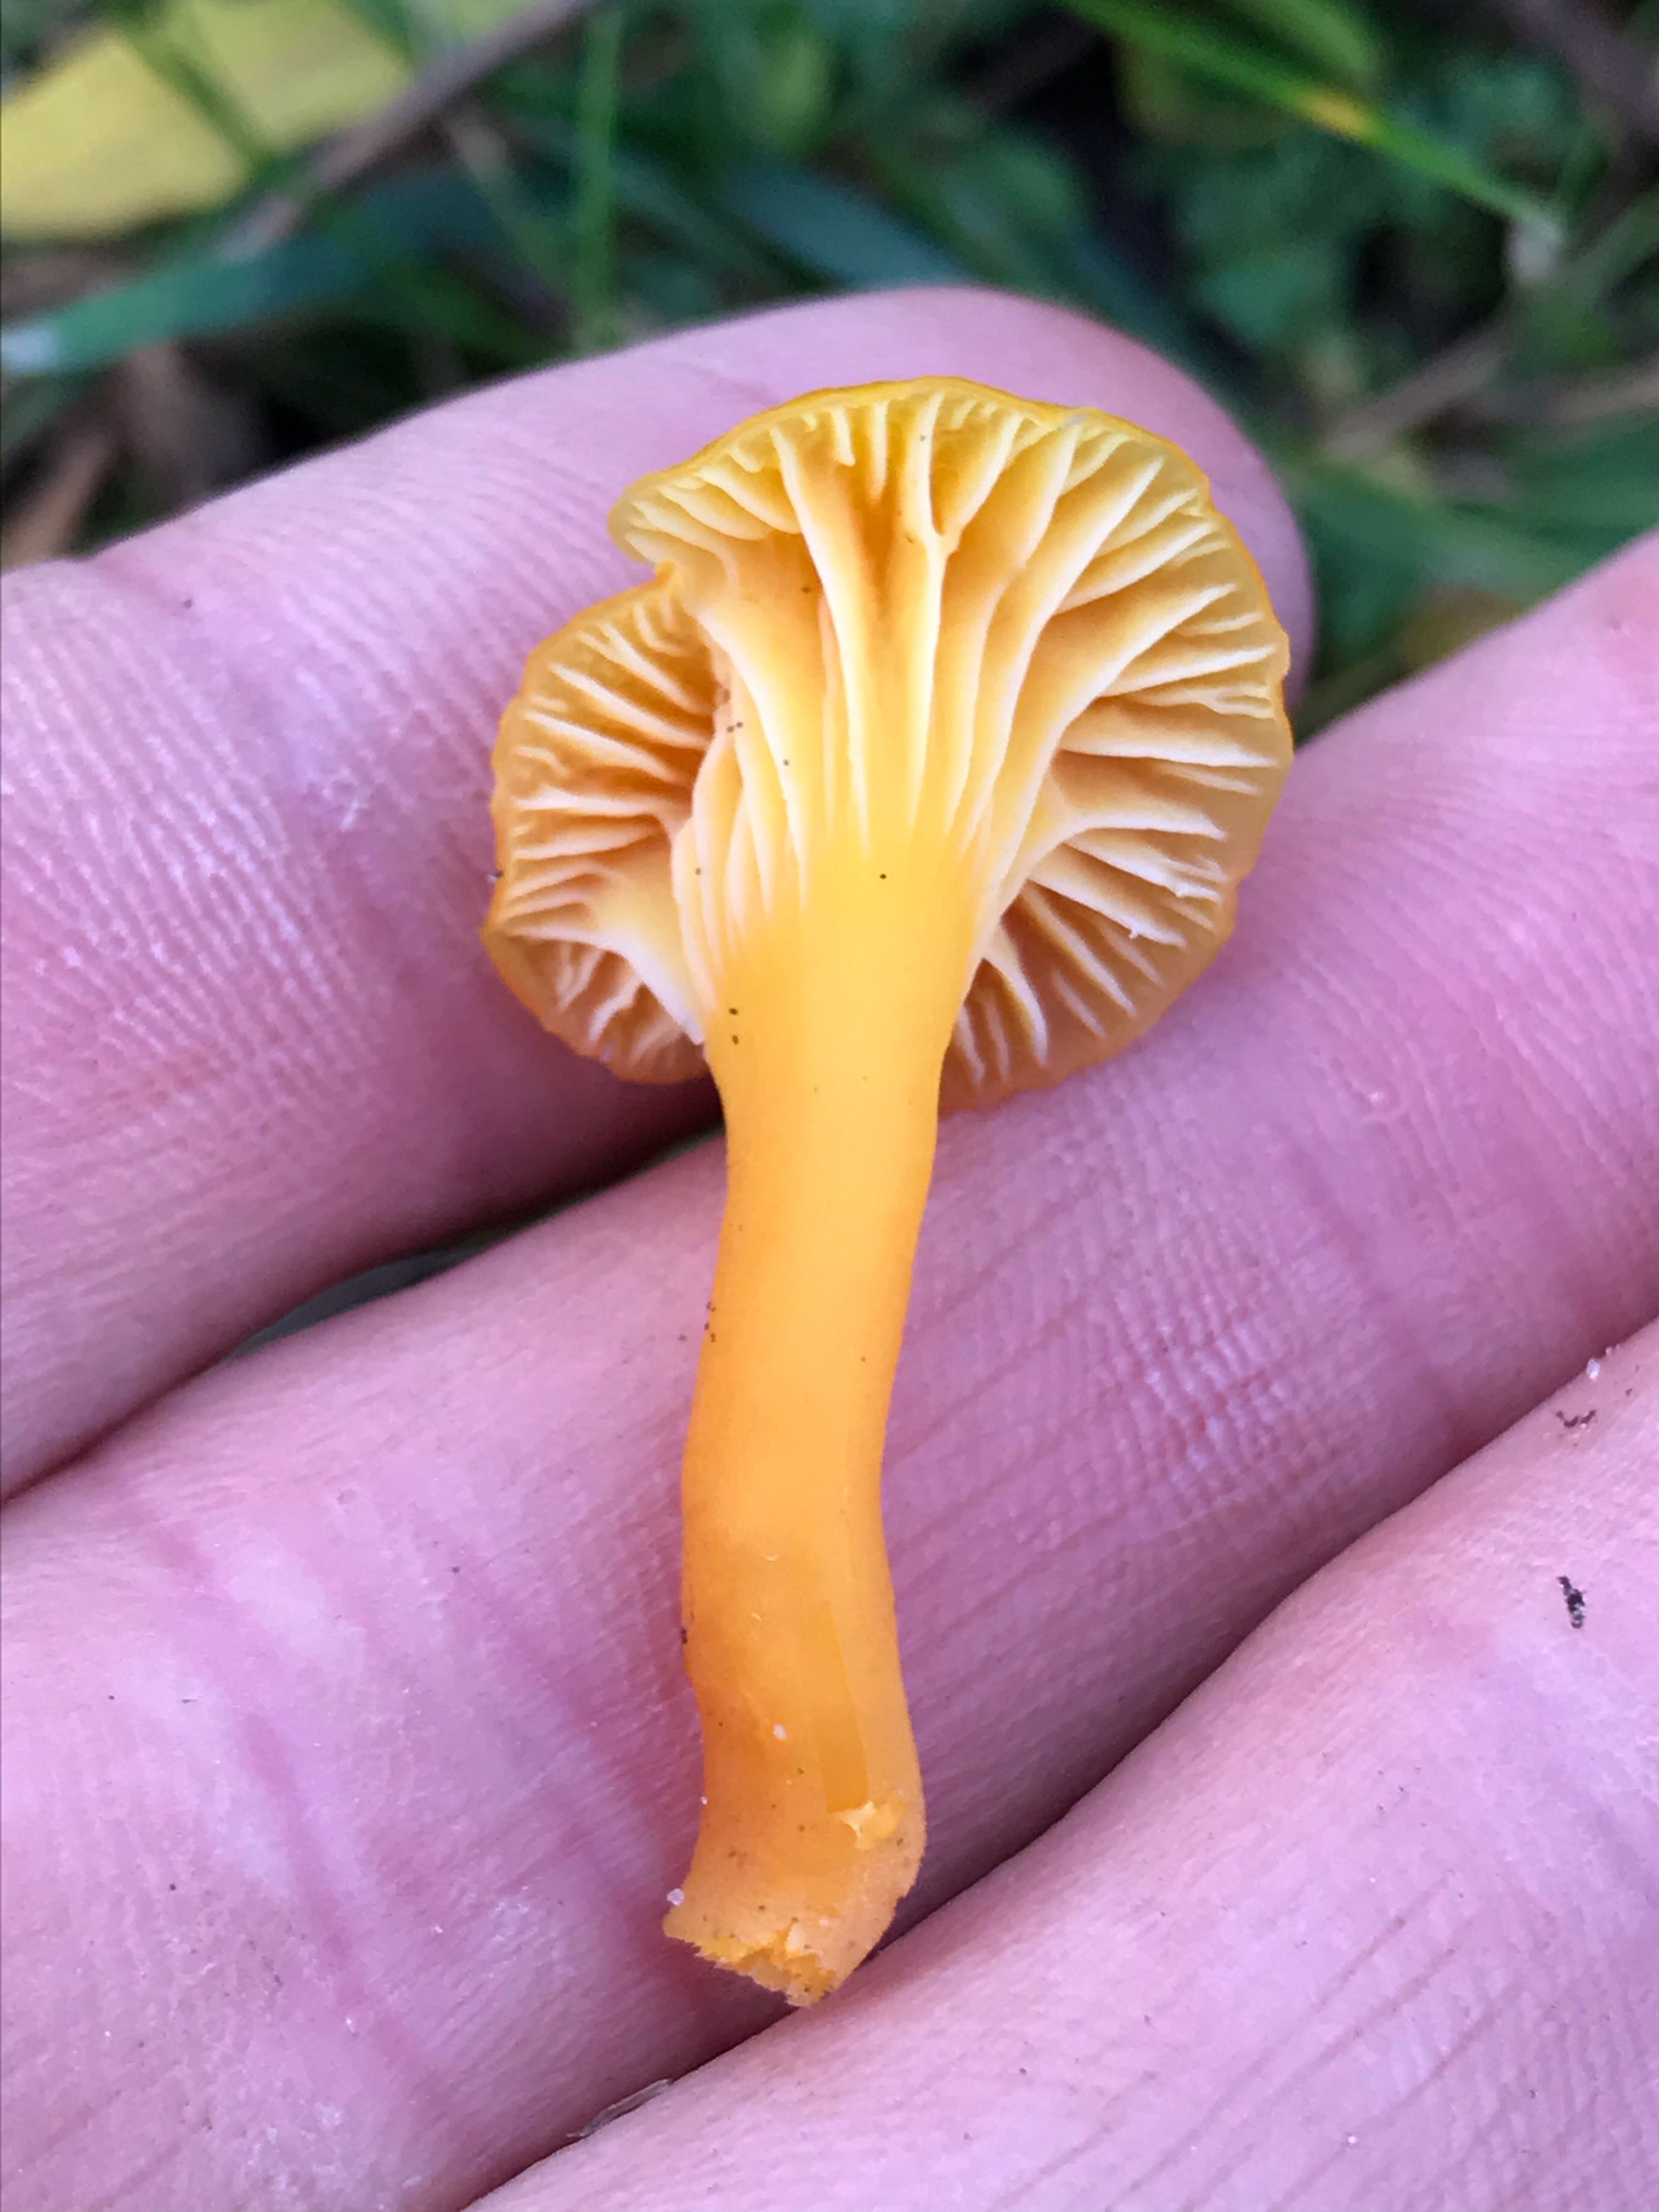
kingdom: Fungi
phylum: Basidiomycota
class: Agaricomycetes
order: Agaricales
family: Hygrophoraceae
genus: Hygrocybe
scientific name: Hygrocybe
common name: vokshat
